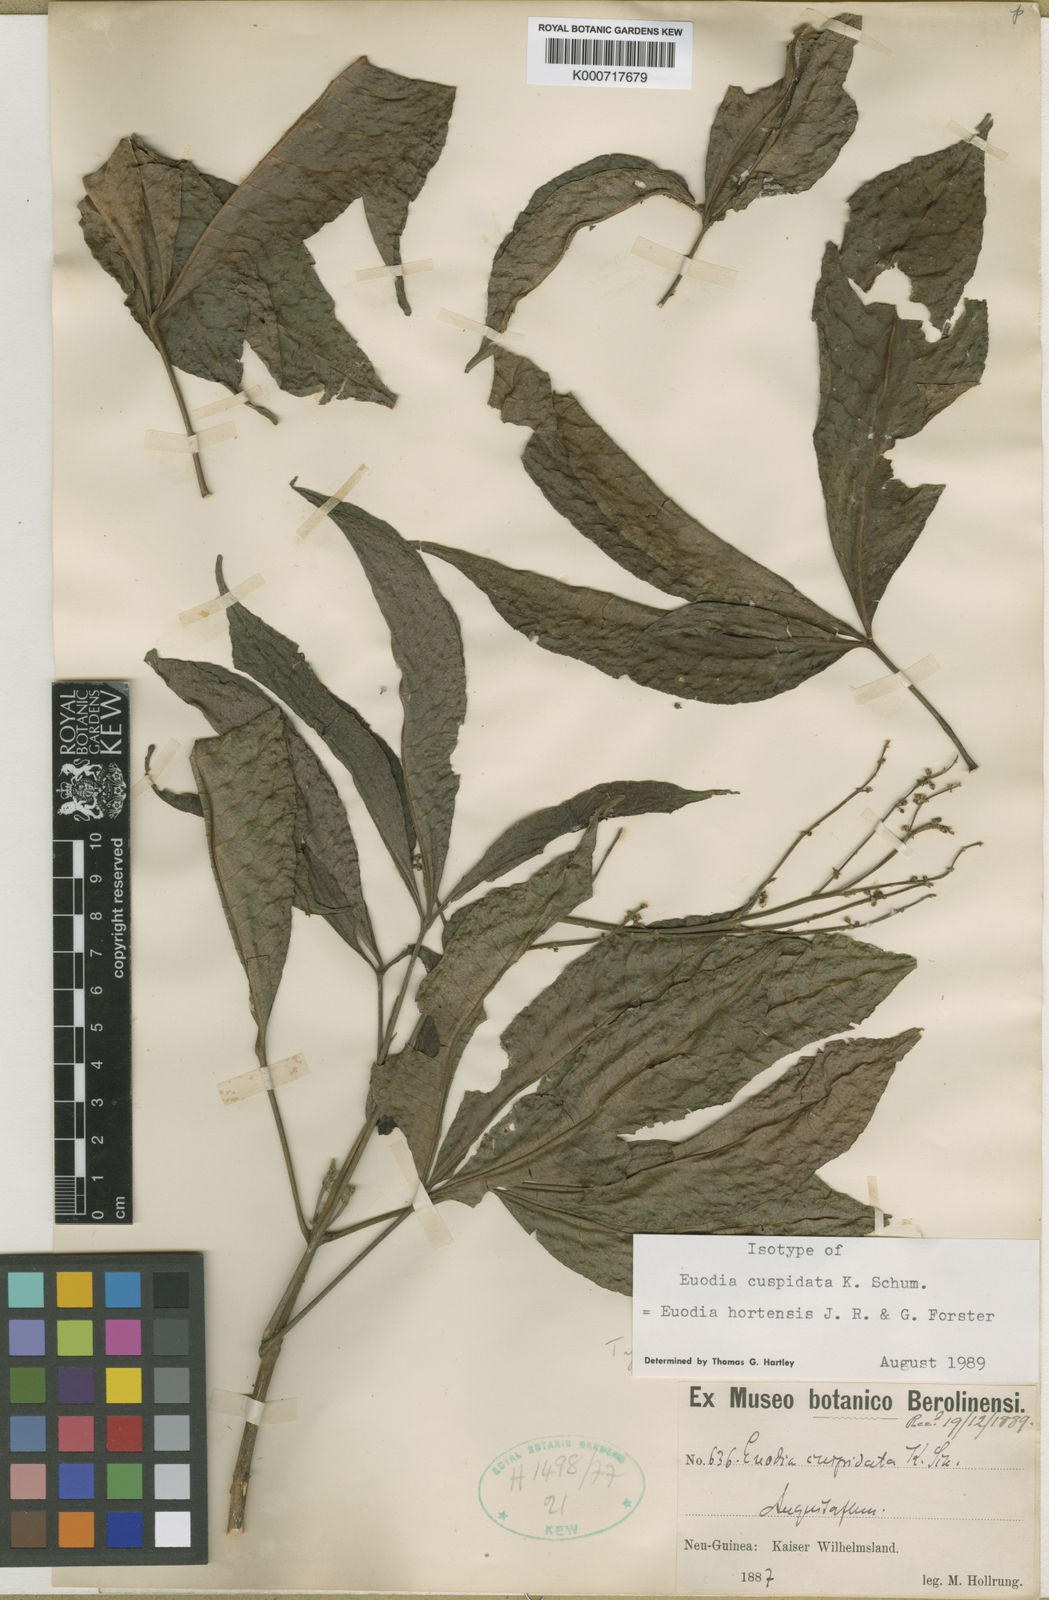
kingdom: Plantae
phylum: Tracheophyta
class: Magnoliopsida
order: Sapindales
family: Rutaceae
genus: Euodia
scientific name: Euodia hortensis
